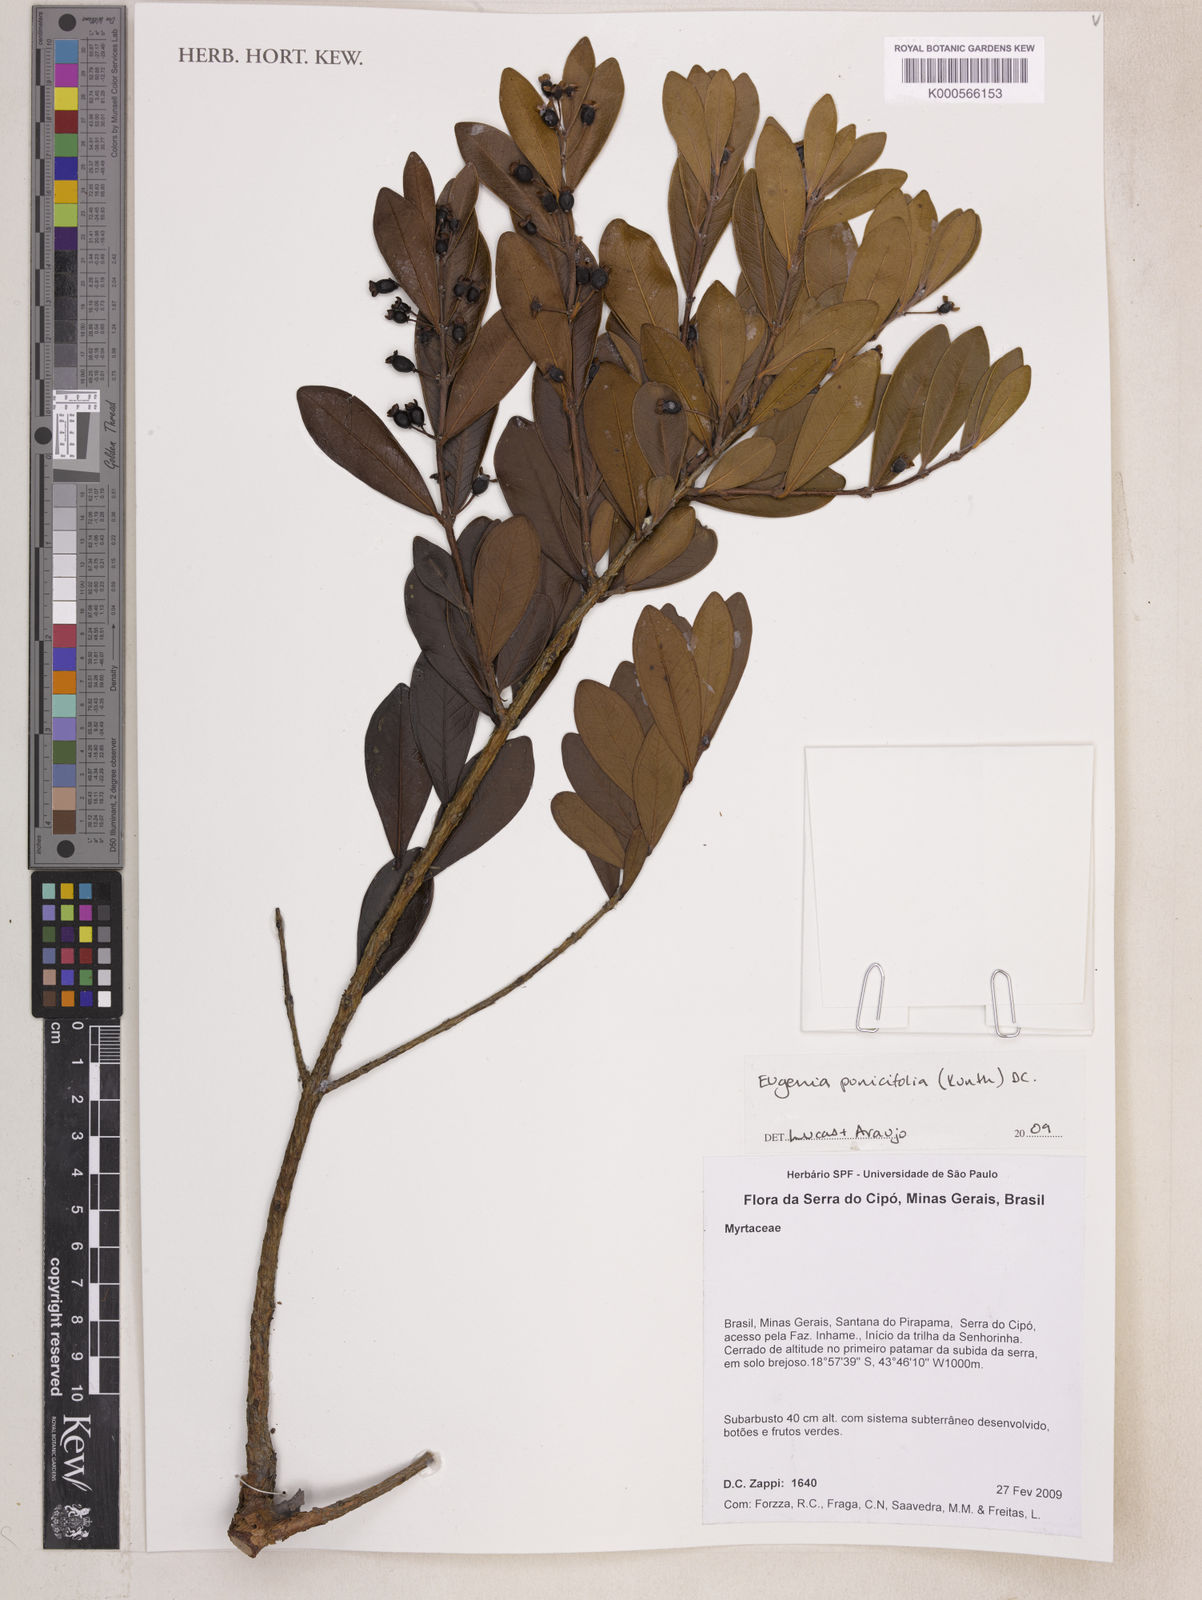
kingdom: Plantae
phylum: Tracheophyta
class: Magnoliopsida
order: Myrtales
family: Myrtaceae
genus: Eugenia
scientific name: Eugenia punicifolia
